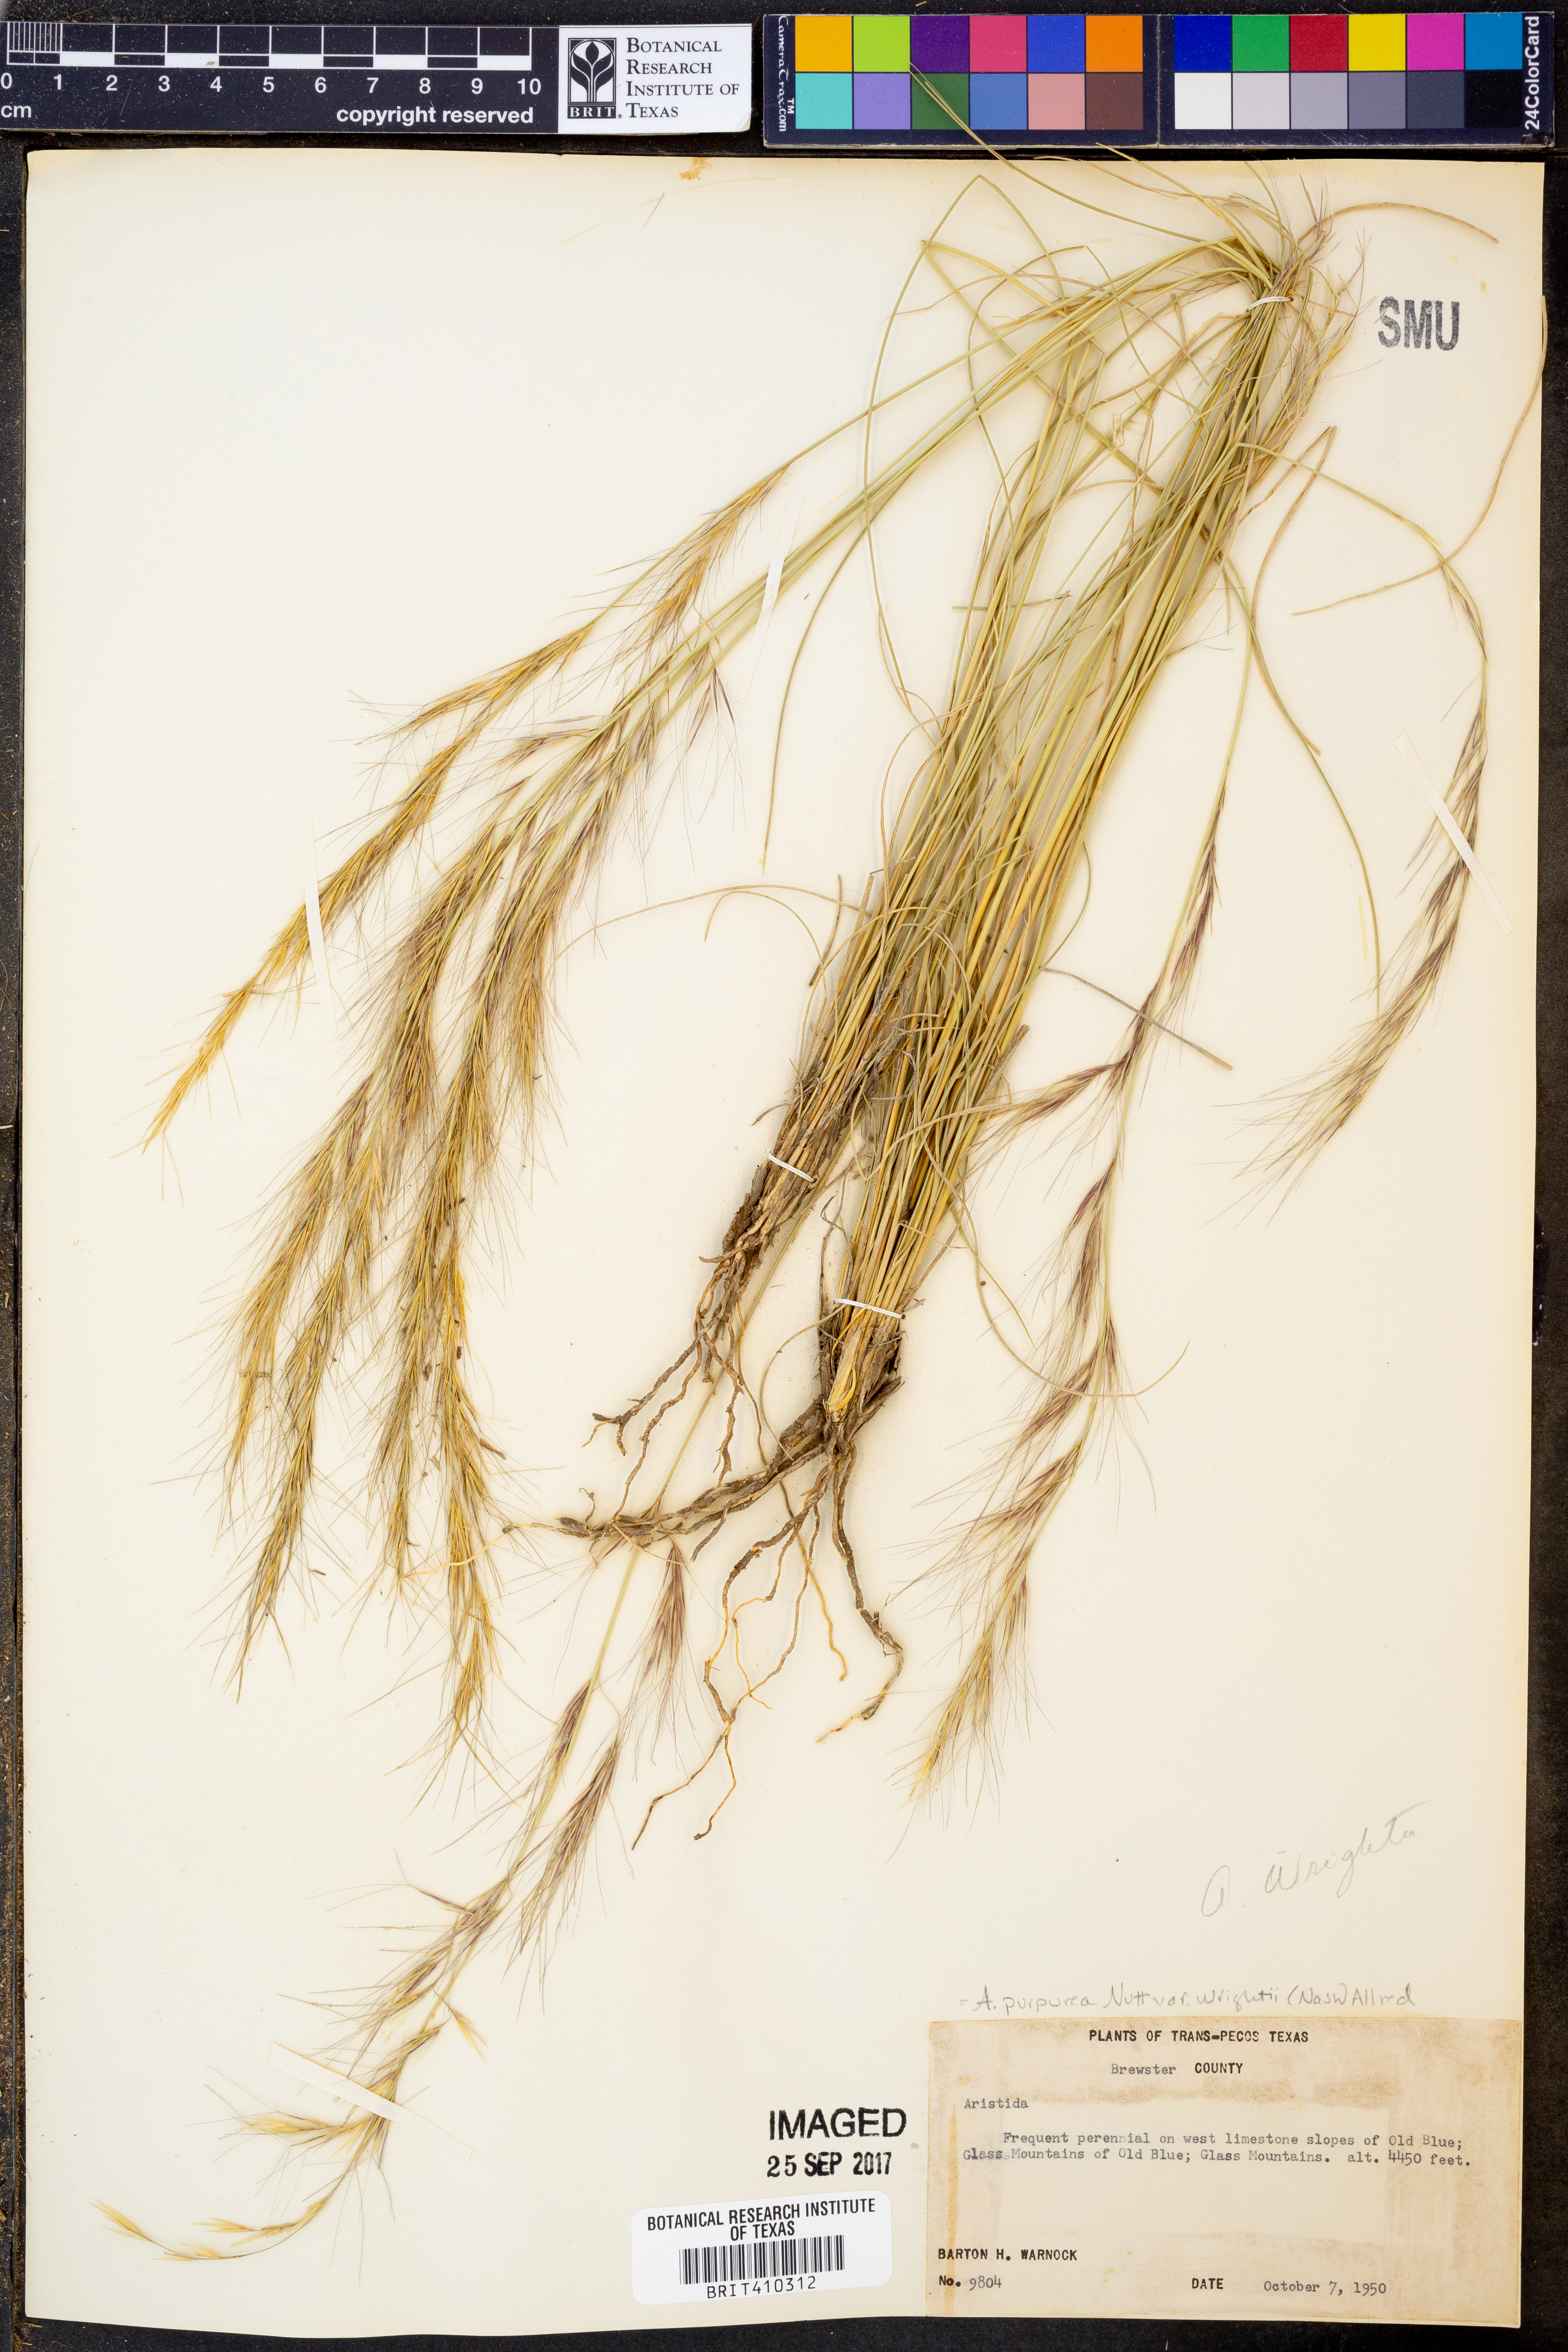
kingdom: Plantae
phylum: Tracheophyta
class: Liliopsida
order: Poales
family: Poaceae
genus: Aristida
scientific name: Aristida wrightii
